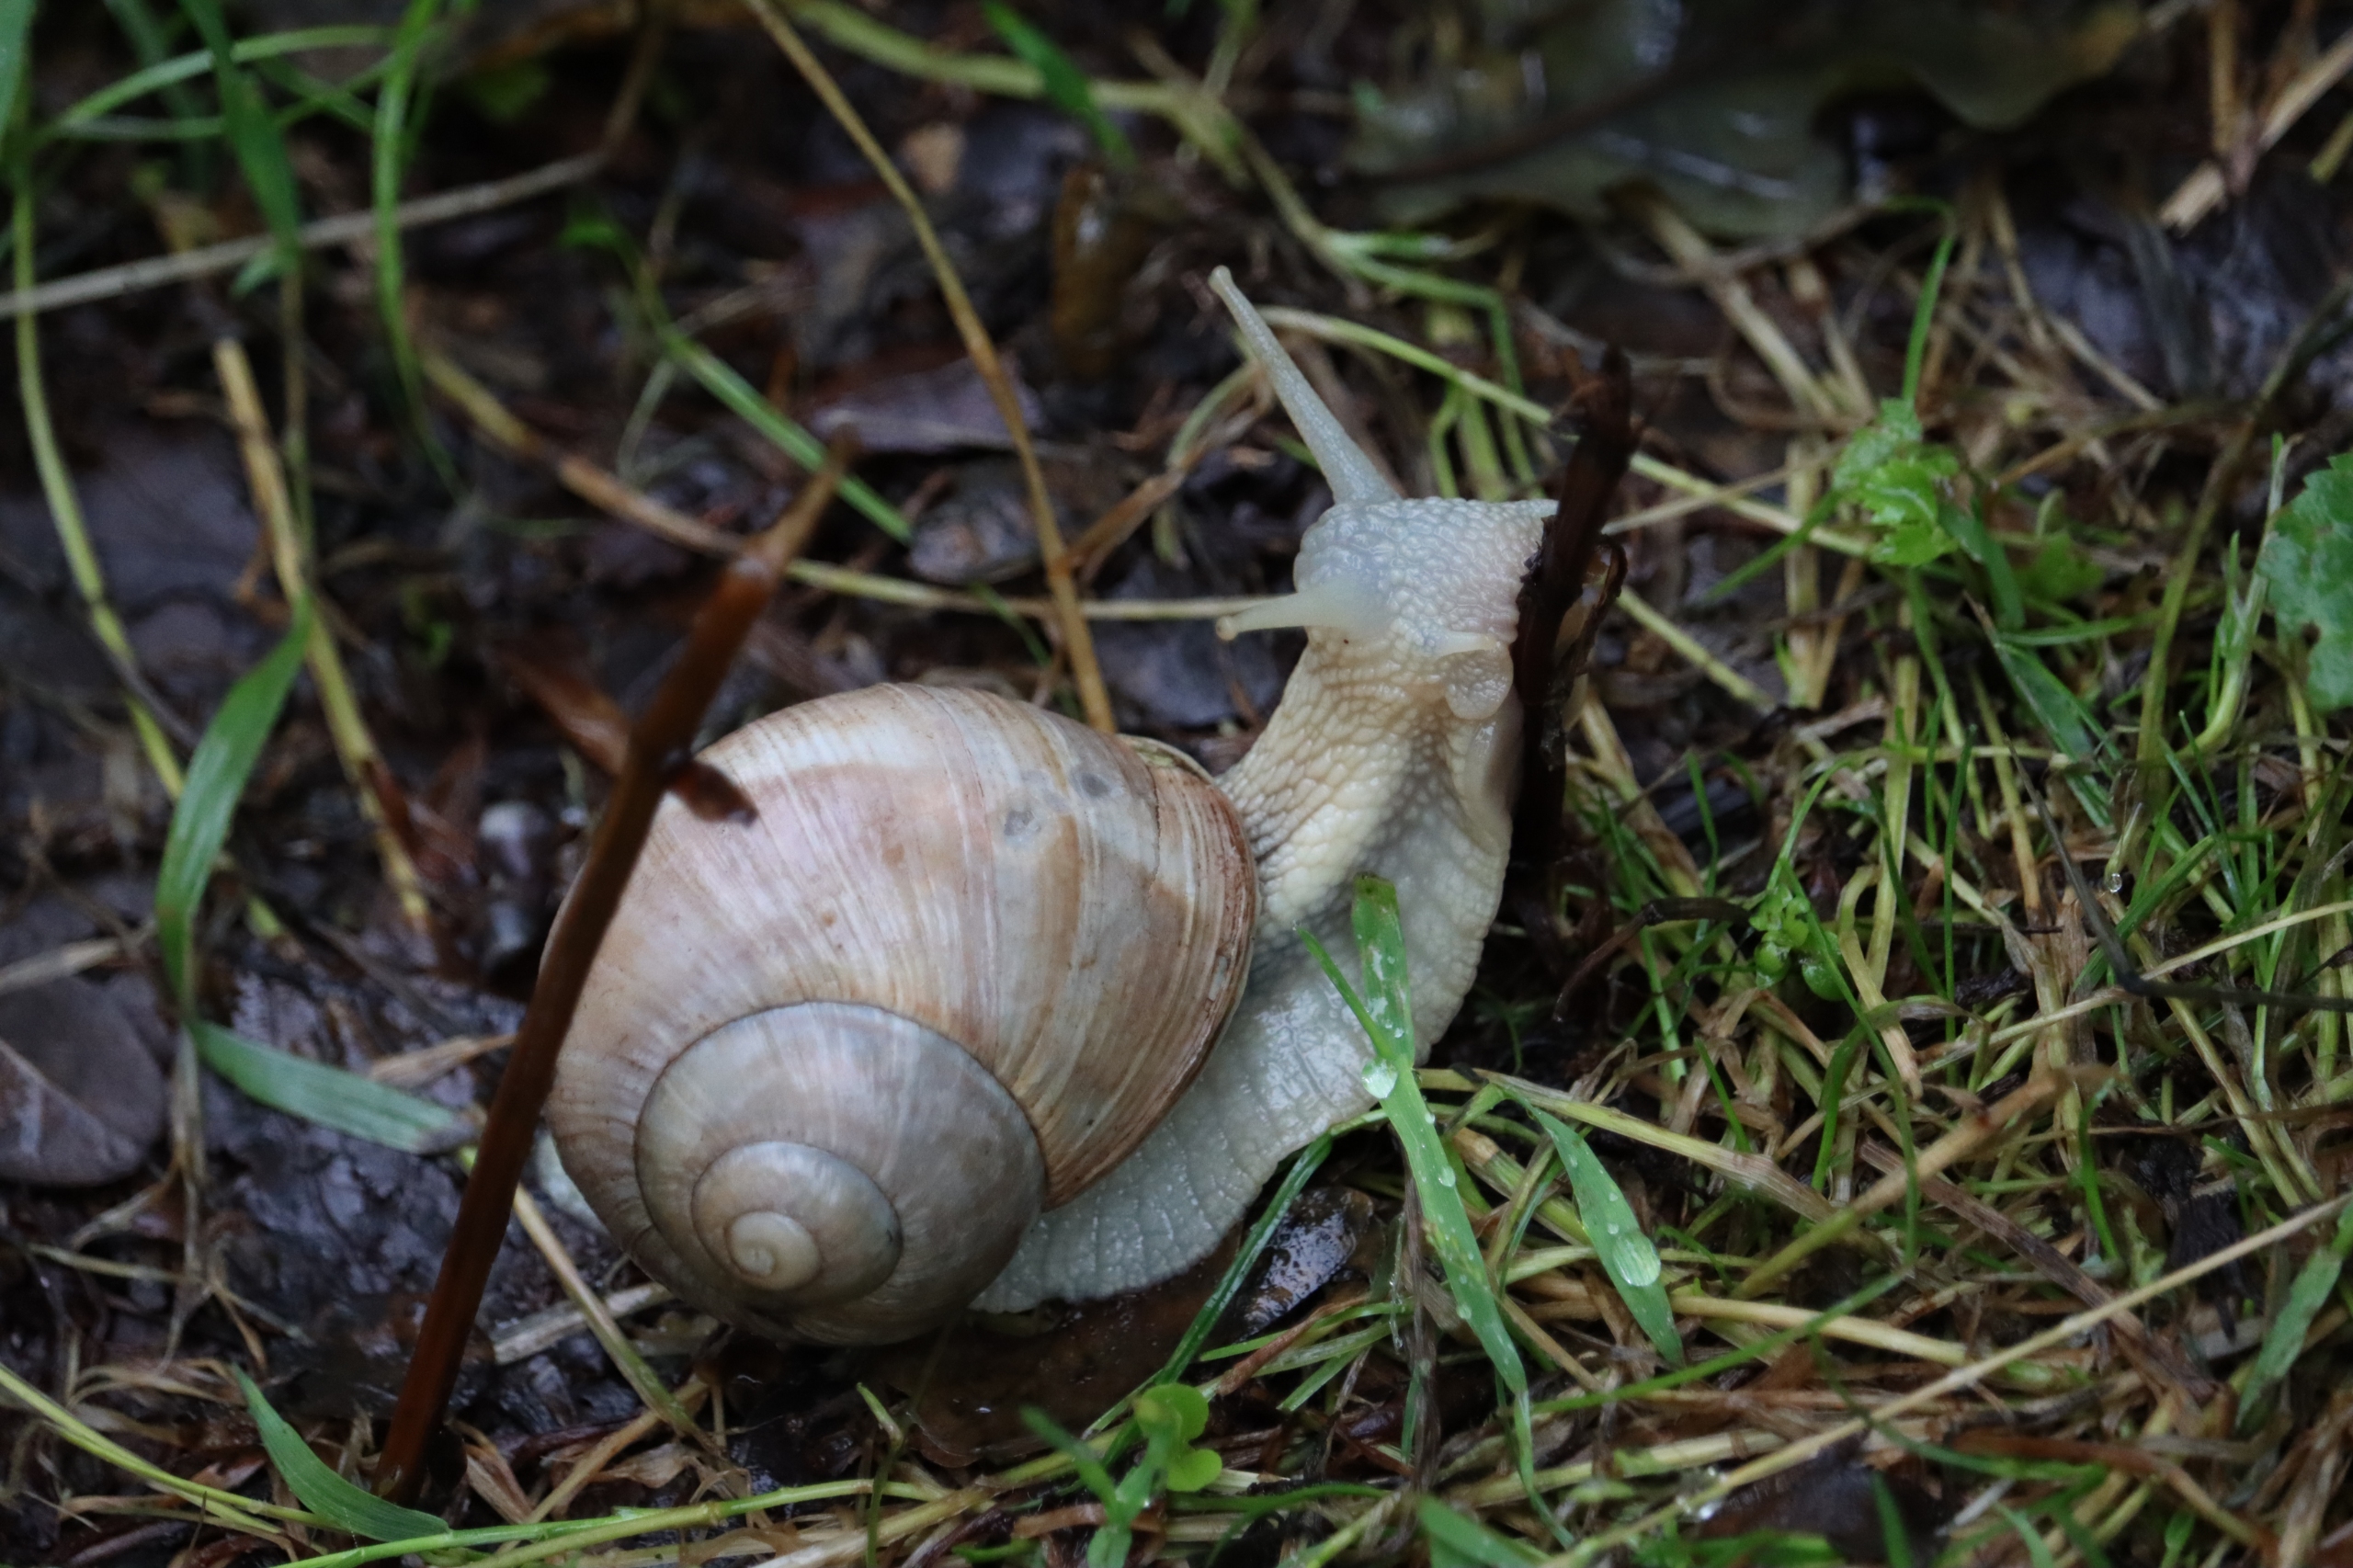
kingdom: Animalia
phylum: Mollusca
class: Gastropoda
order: Stylommatophora
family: Helicidae
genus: Helix
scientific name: Helix pomatia
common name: Vinbjergsnegl
